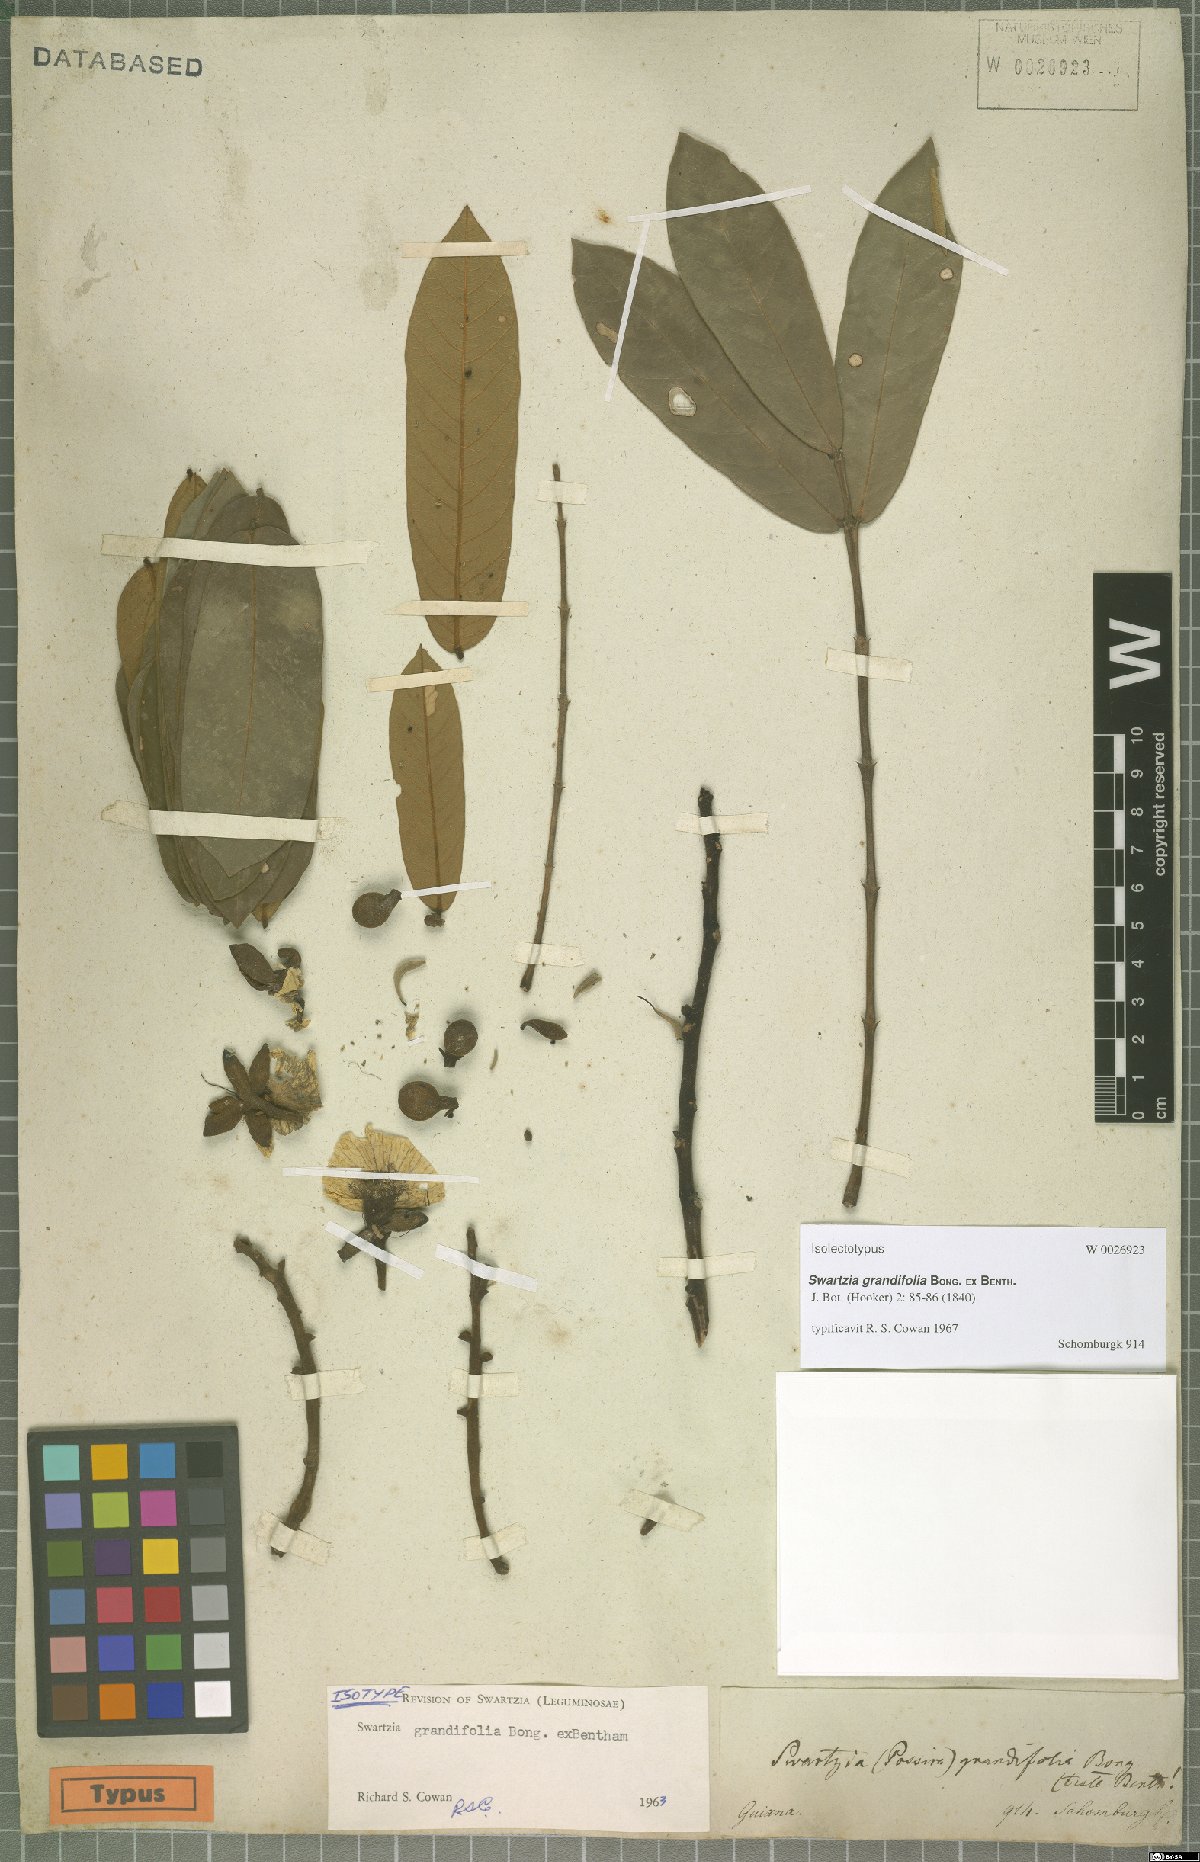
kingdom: Plantae
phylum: Tracheophyta
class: Magnoliopsida
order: Fabales
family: Fabaceae
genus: Swartzia
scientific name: Swartzia grandifolia
